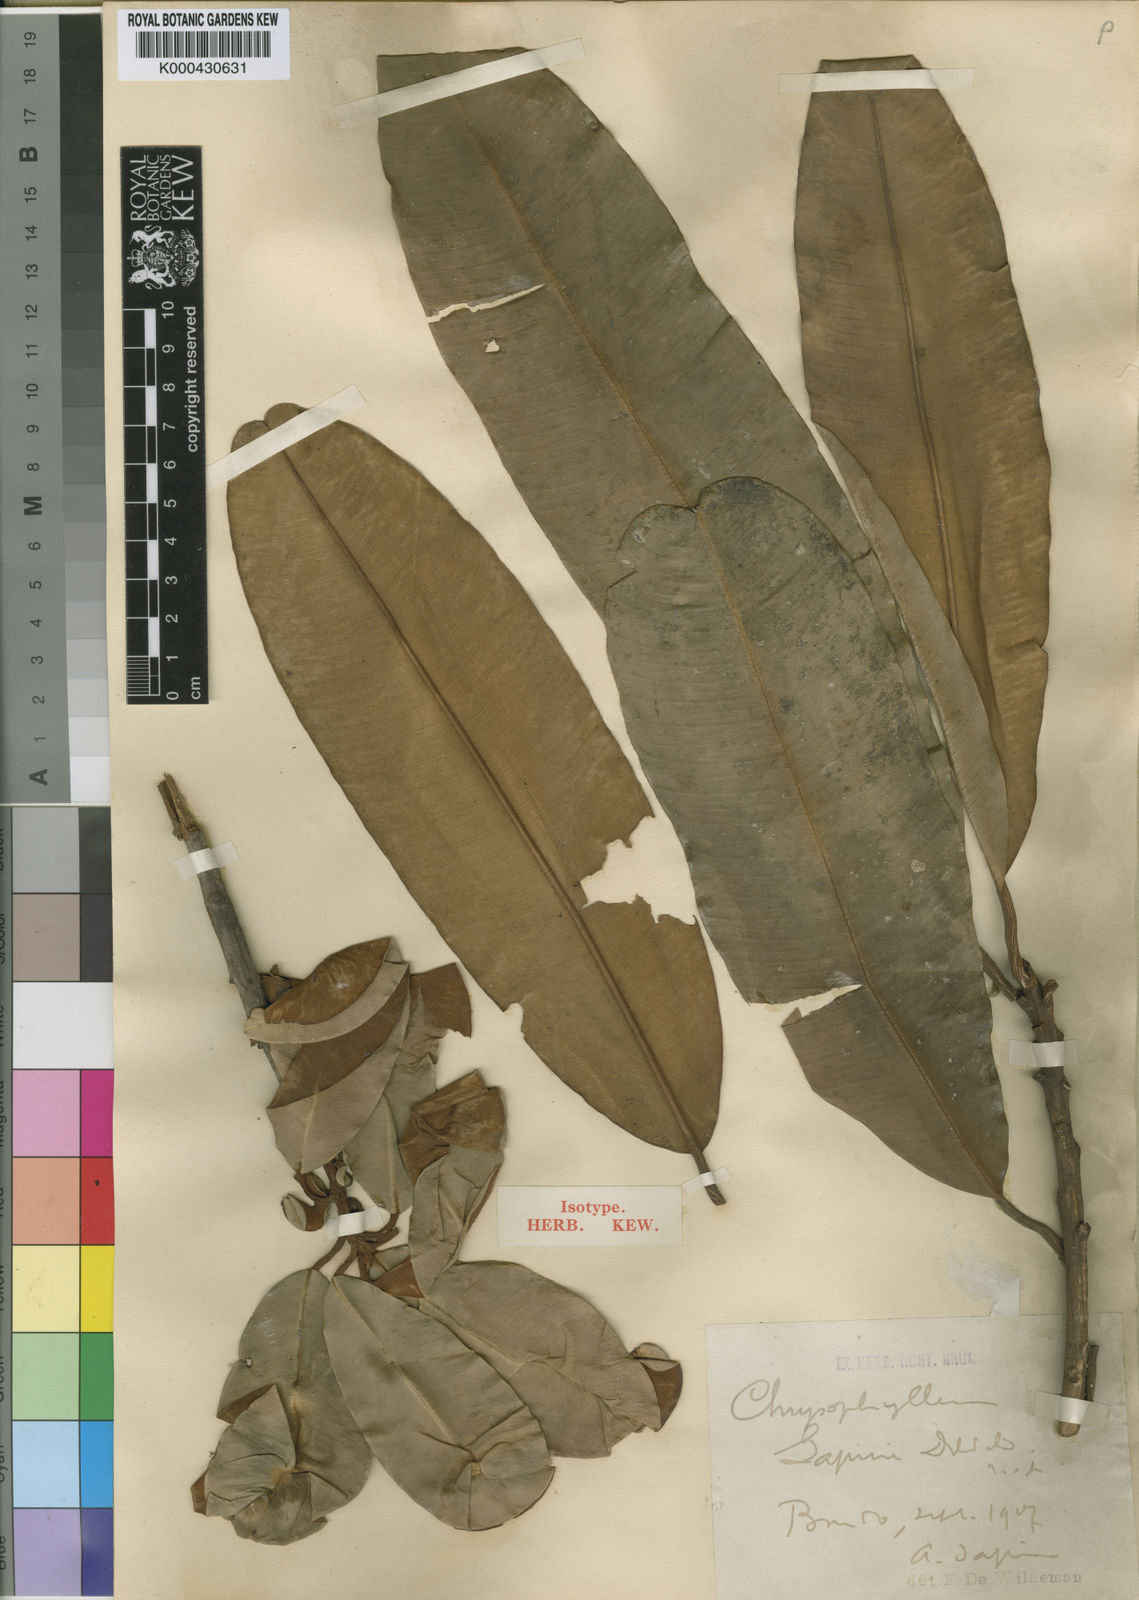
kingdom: Plantae
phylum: Tracheophyta
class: Magnoliopsida
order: Ericales
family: Sapotaceae
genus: Englerophytum
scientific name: Englerophytum magalismontanum
